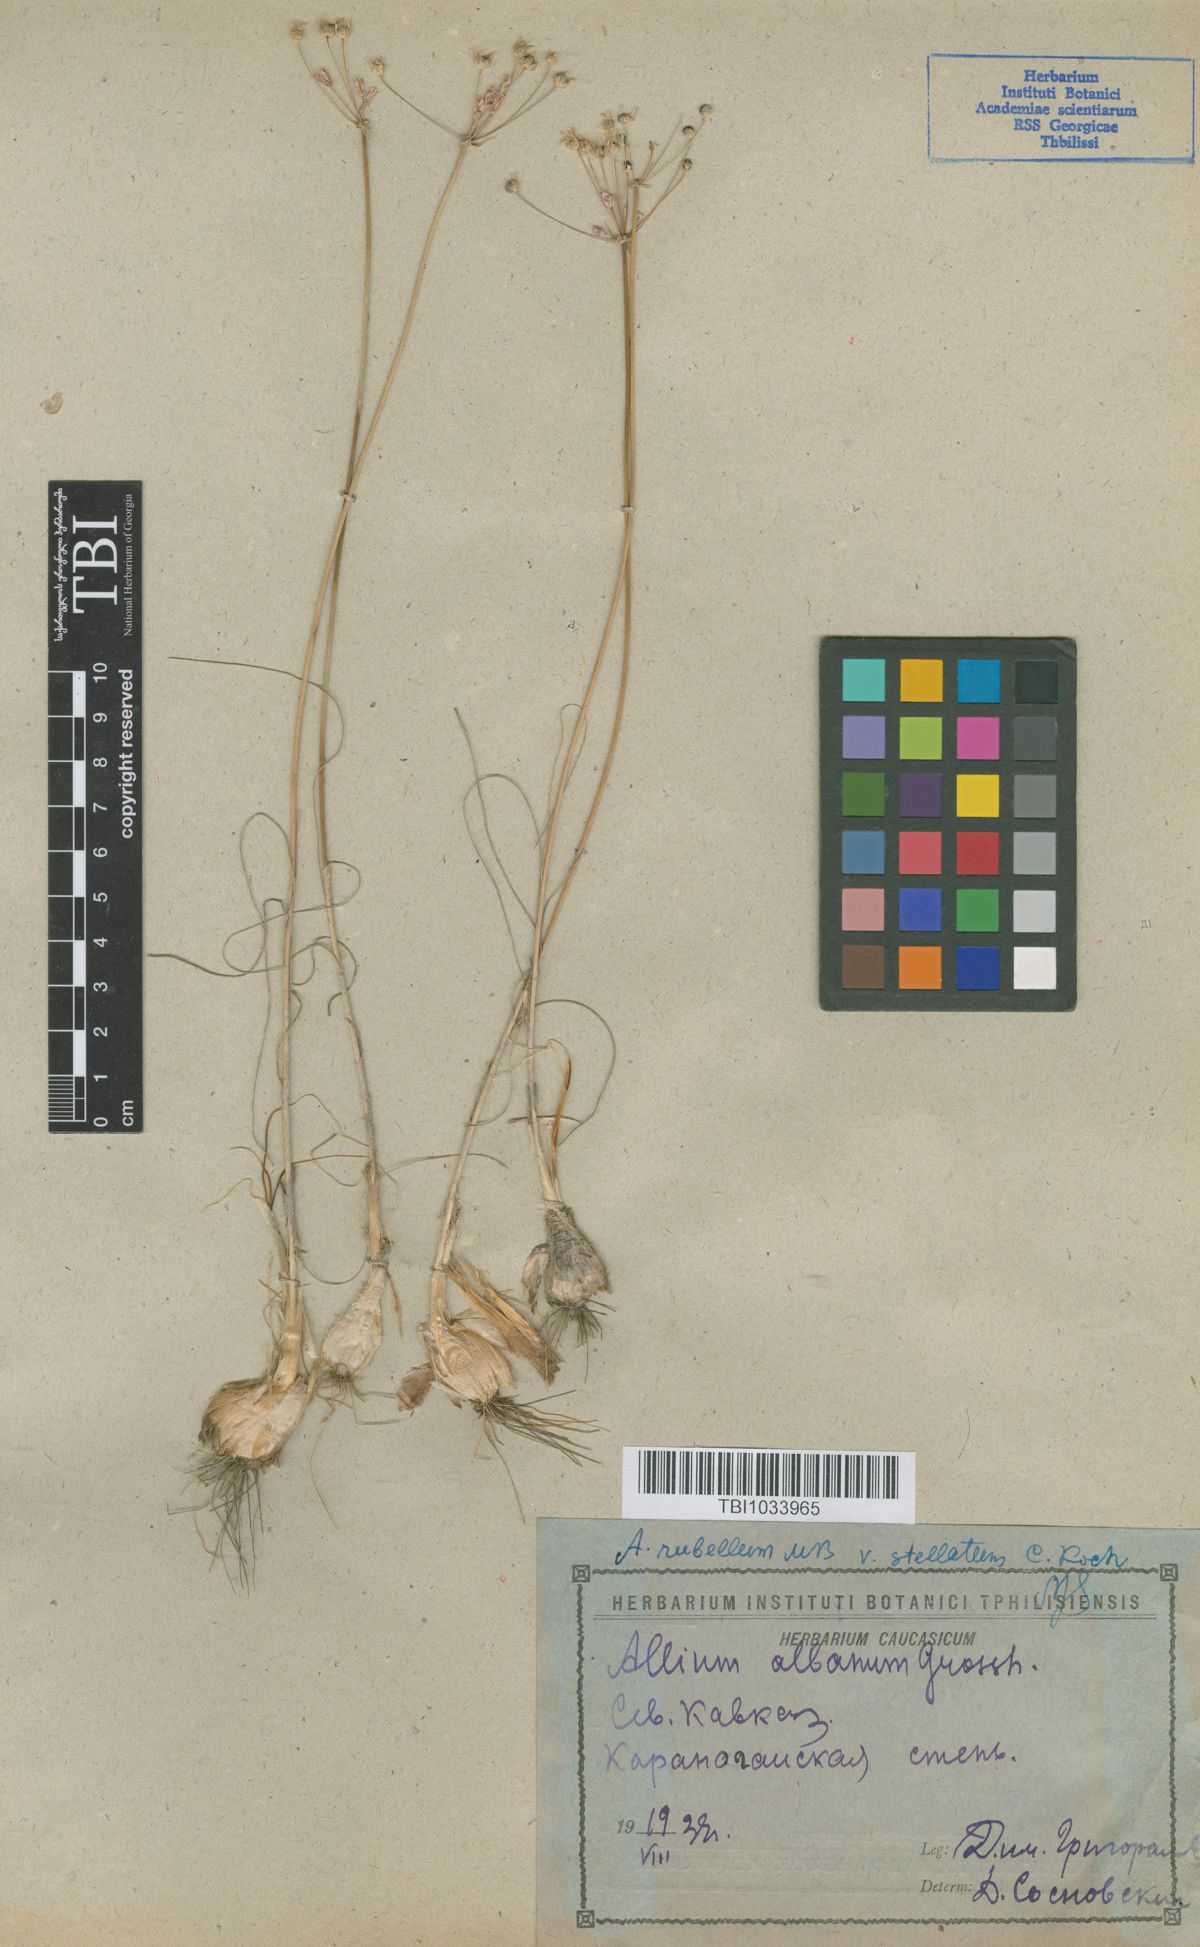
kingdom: Plantae
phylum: Tracheophyta
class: Liliopsida
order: Asparagales
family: Amaryllidaceae
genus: Allium
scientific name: Allium rubellum
